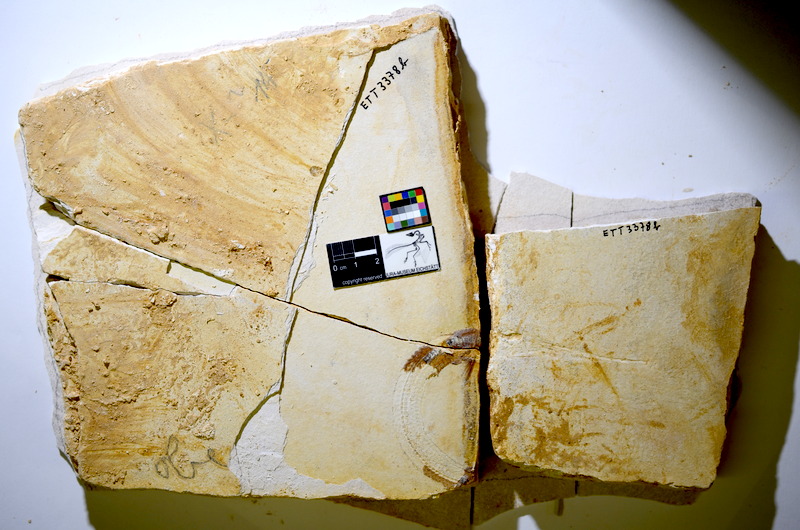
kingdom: Animalia
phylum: Chordata
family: Aspidorhynchidae
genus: Belonostomus
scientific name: Belonostomus kochii
